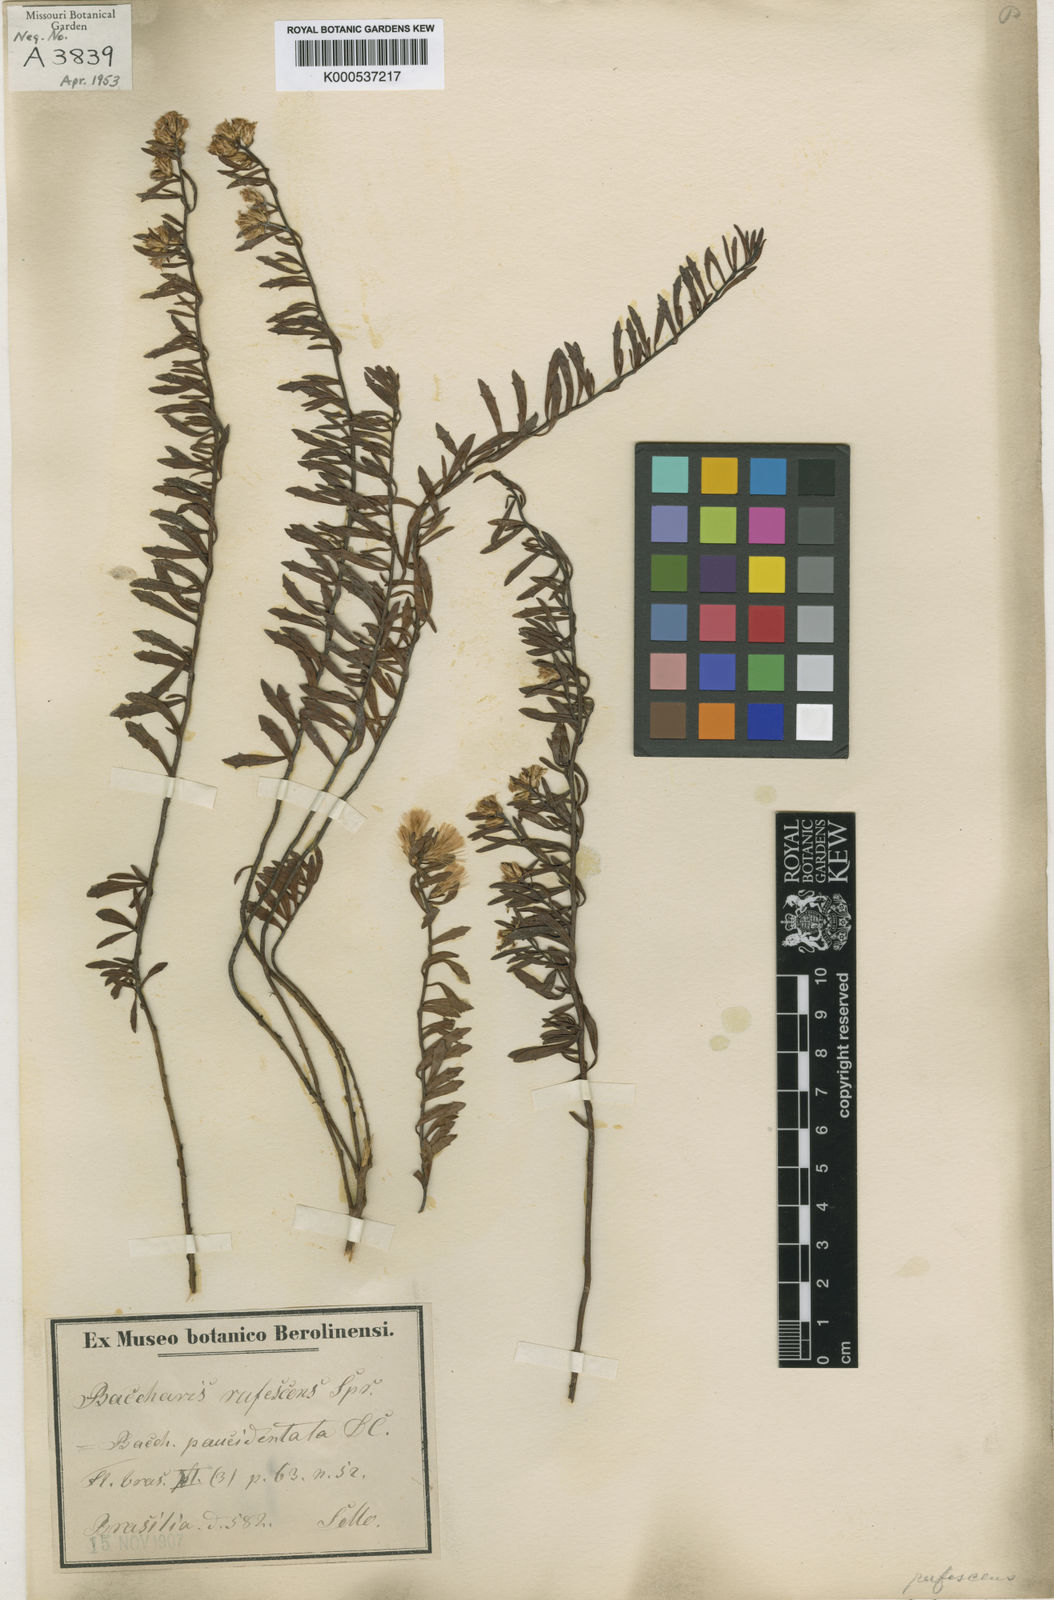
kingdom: Plantae
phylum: Tracheophyta
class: Magnoliopsida
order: Asterales
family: Asteraceae
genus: Baccharis
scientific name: Baccharis rufescens
